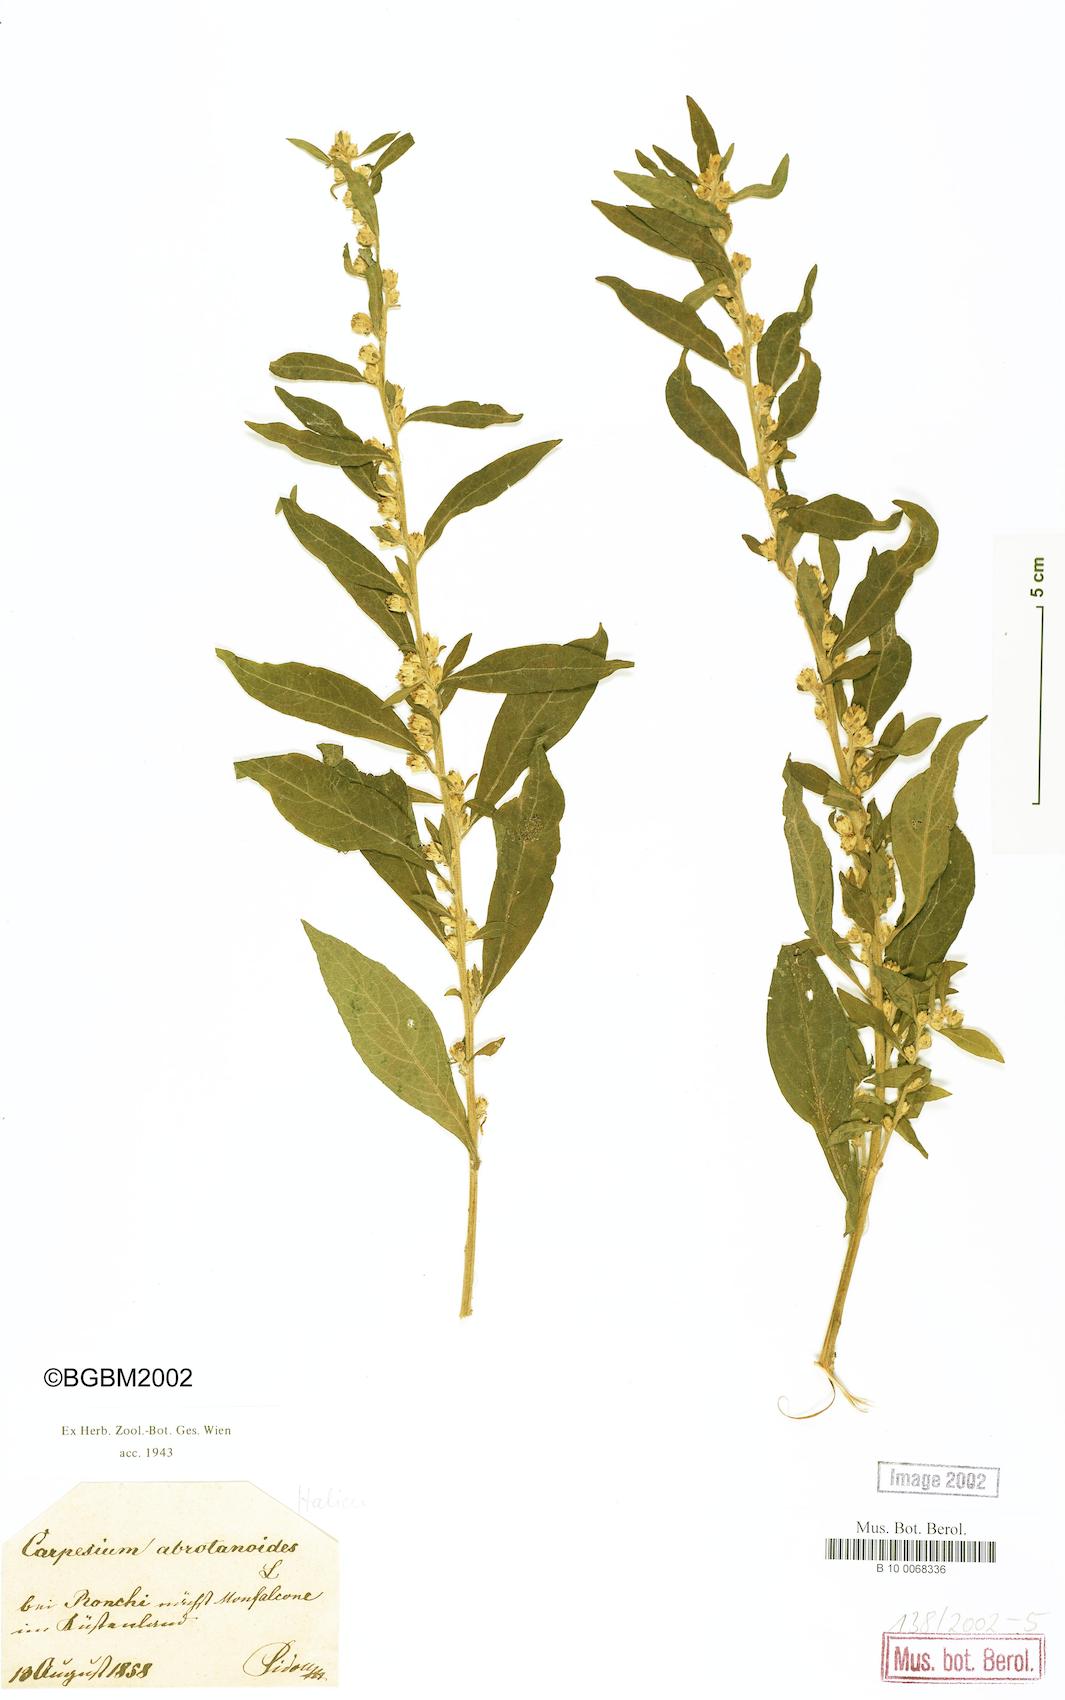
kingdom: Plantae
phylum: Tracheophyta
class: Magnoliopsida
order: Asterales
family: Asteraceae
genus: Carpesium
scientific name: Carpesium abrotanoides
